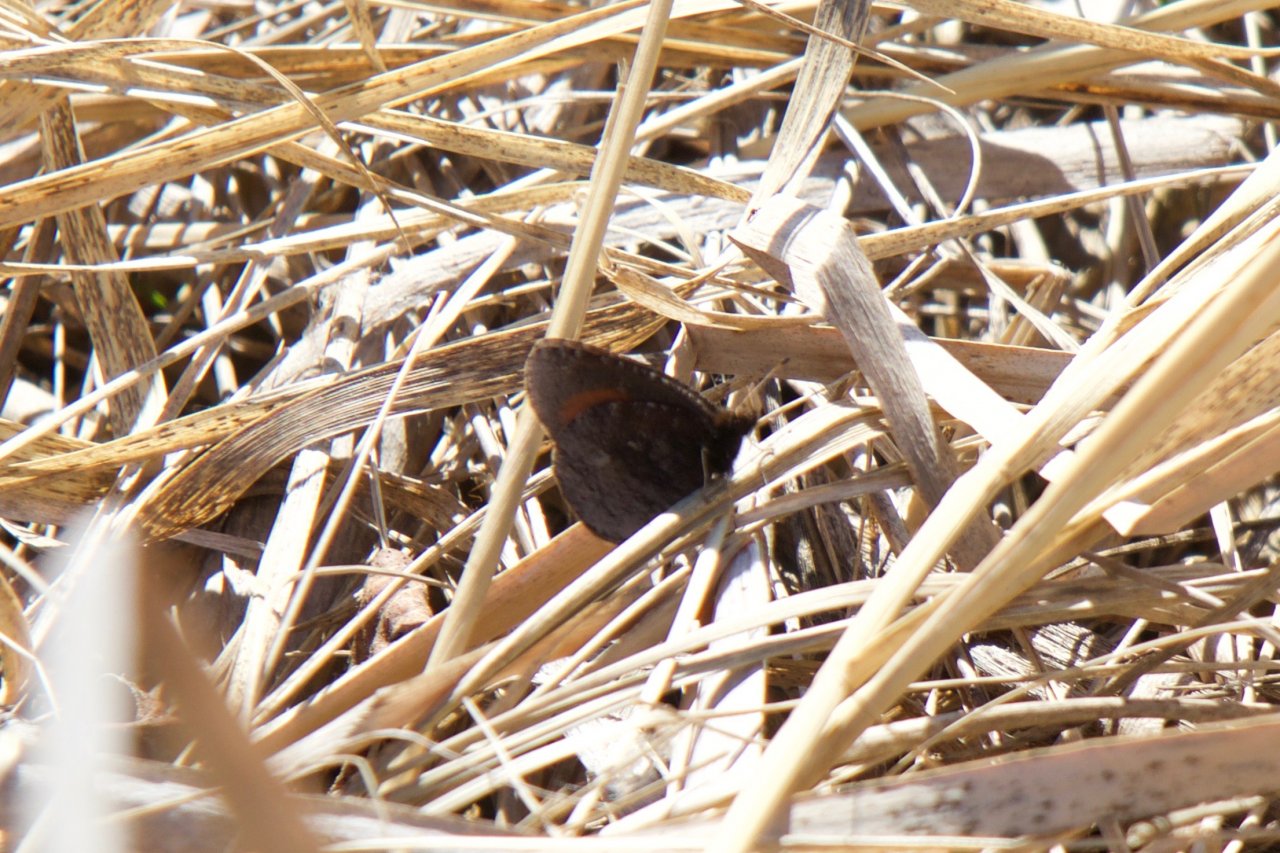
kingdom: Animalia
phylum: Arthropoda
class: Insecta
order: Lepidoptera
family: Nymphalidae
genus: Erebia
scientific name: Erebia discoidalis
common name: Red-disked Alpine
